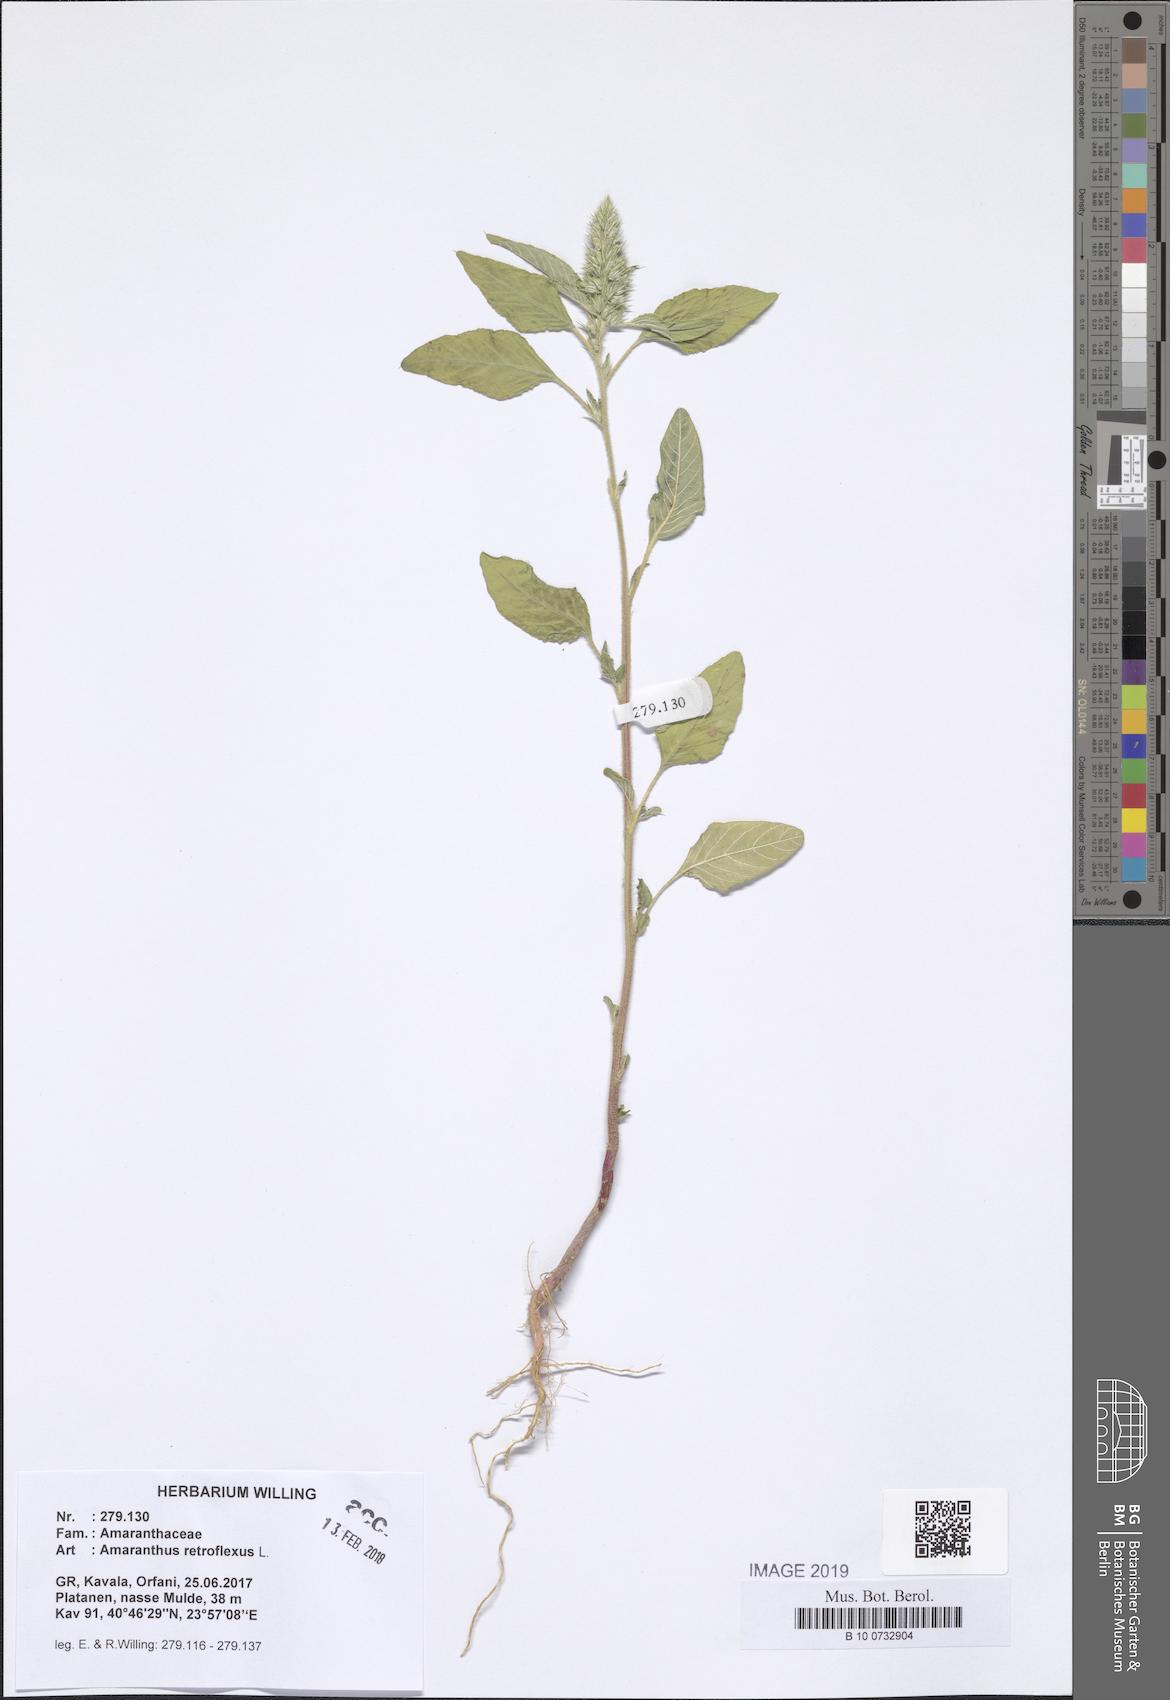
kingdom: Plantae
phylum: Tracheophyta
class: Magnoliopsida
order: Caryophyllales
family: Amaranthaceae
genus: Amaranthus
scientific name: Amaranthus retroflexus
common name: Redroot amaranth
